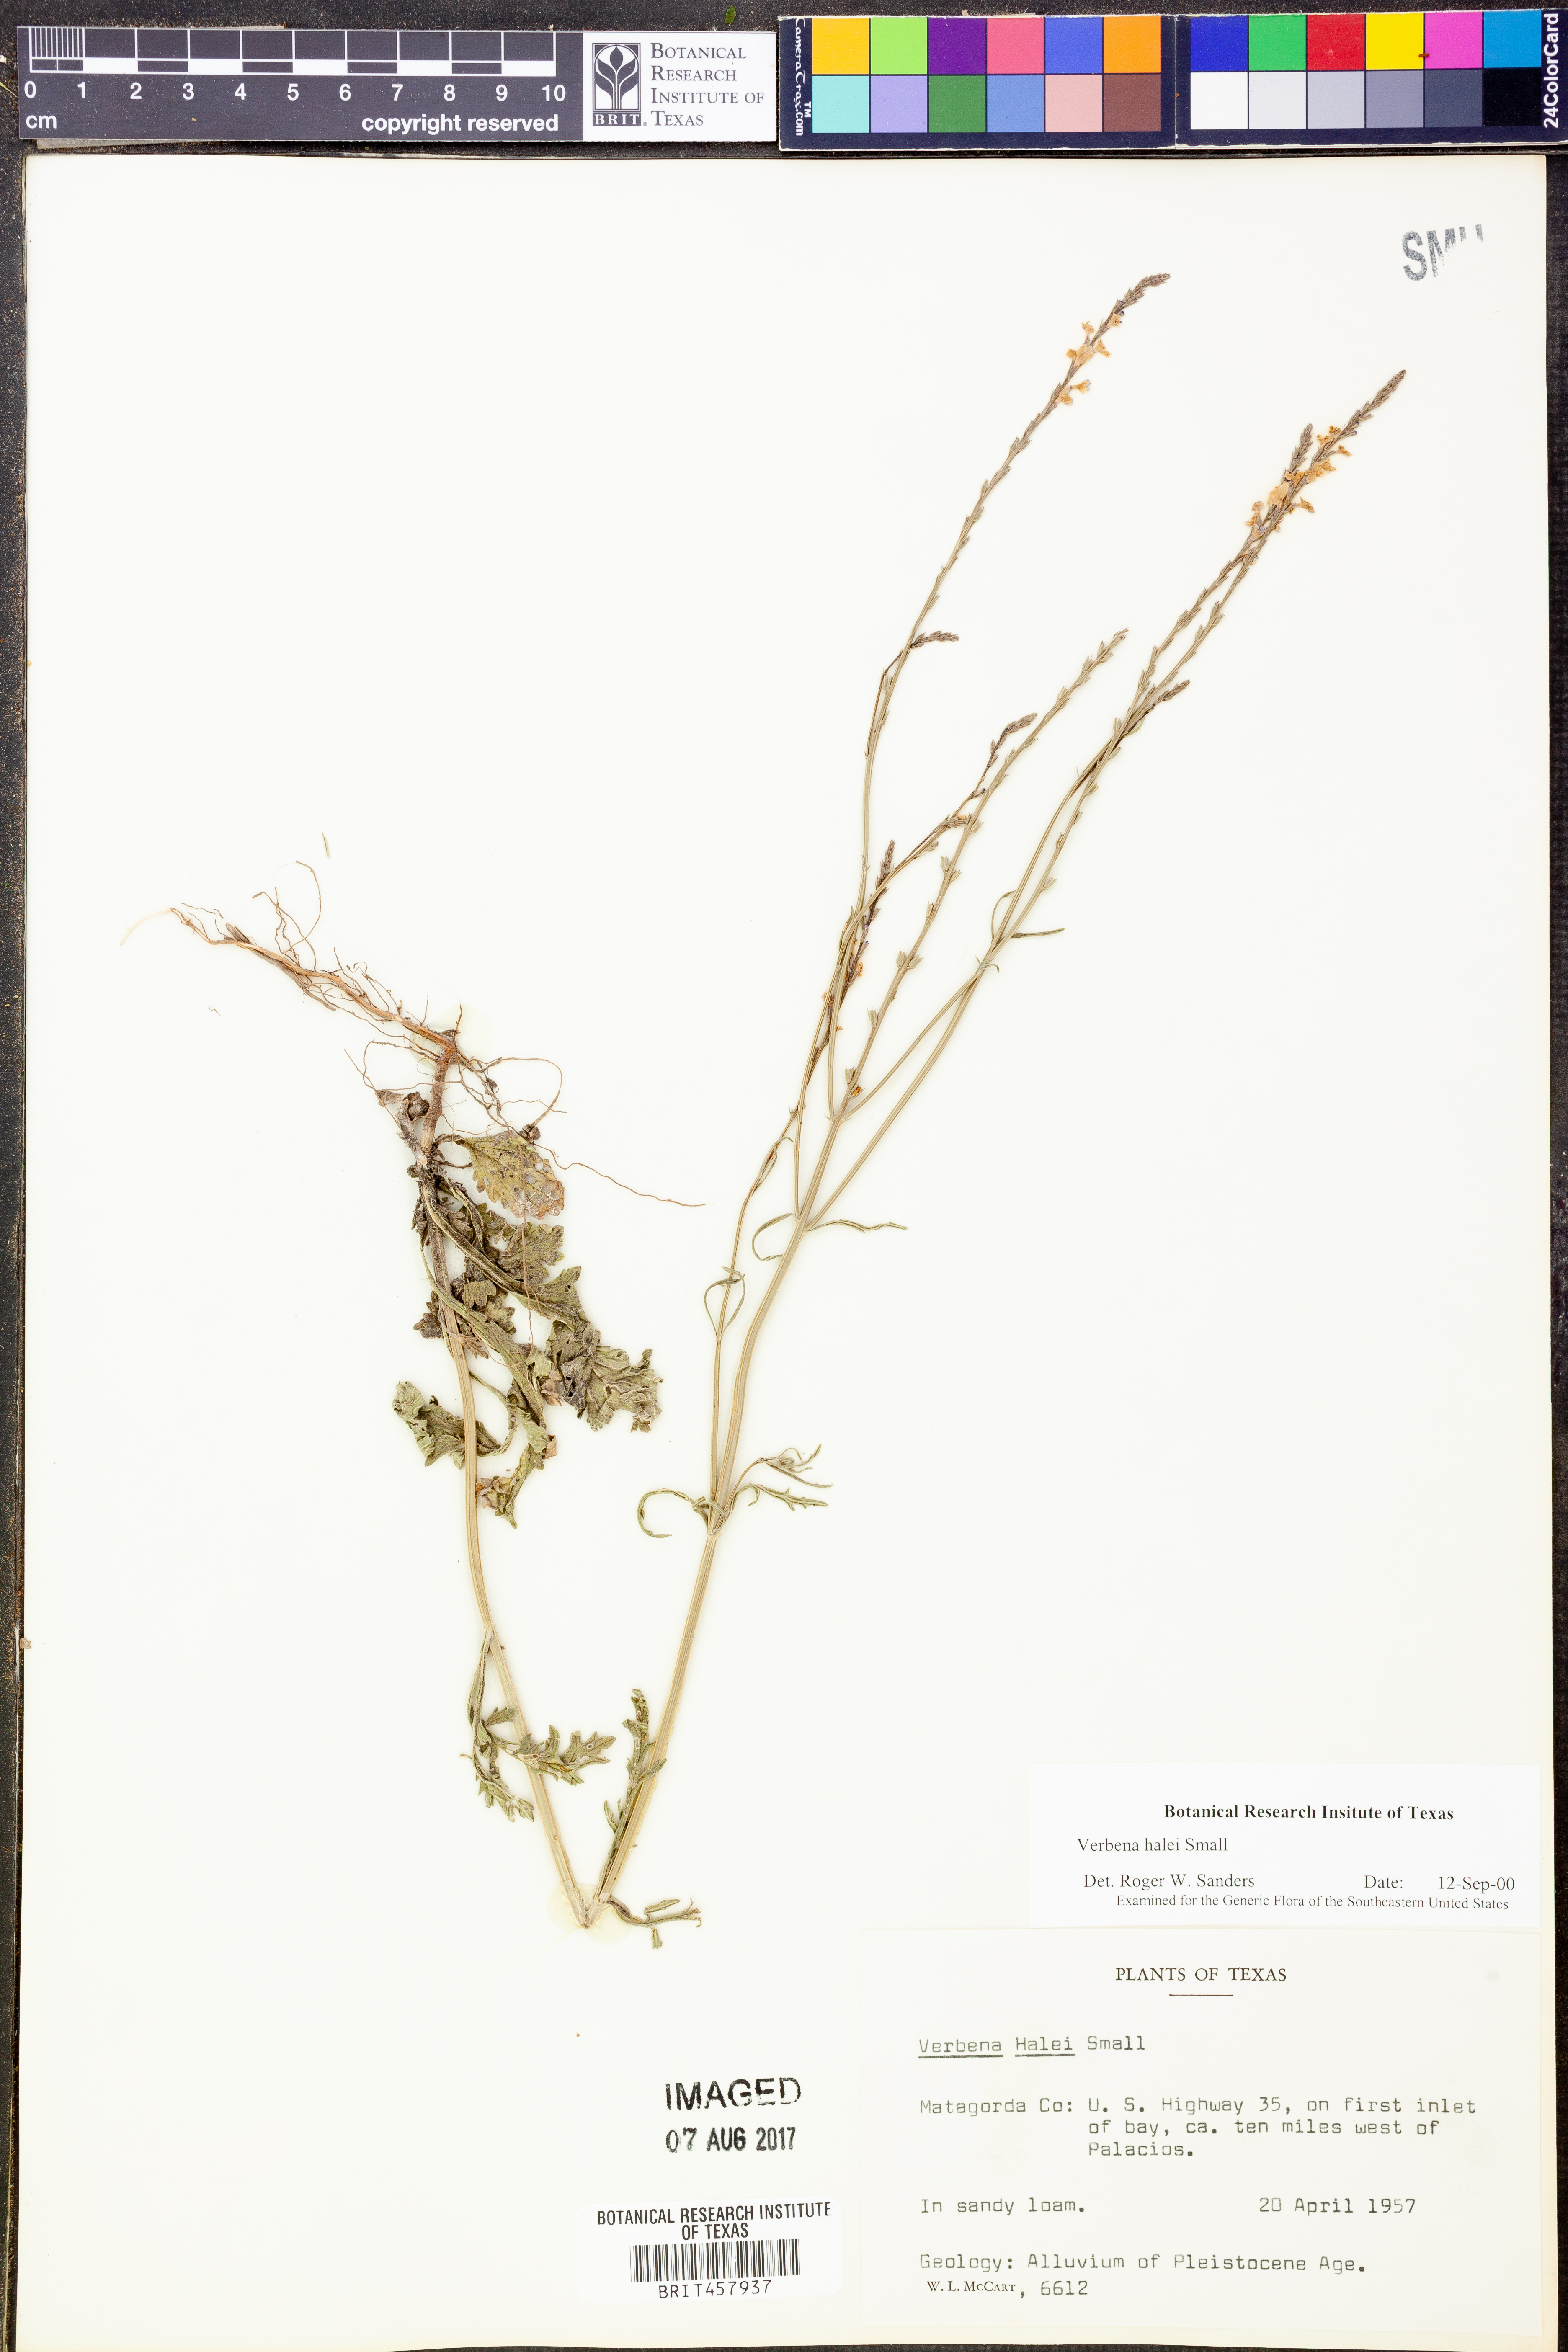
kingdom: Plantae
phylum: Tracheophyta
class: Magnoliopsida
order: Lamiales
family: Verbenaceae
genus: Verbena
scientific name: Verbena halei
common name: Texas vervain
